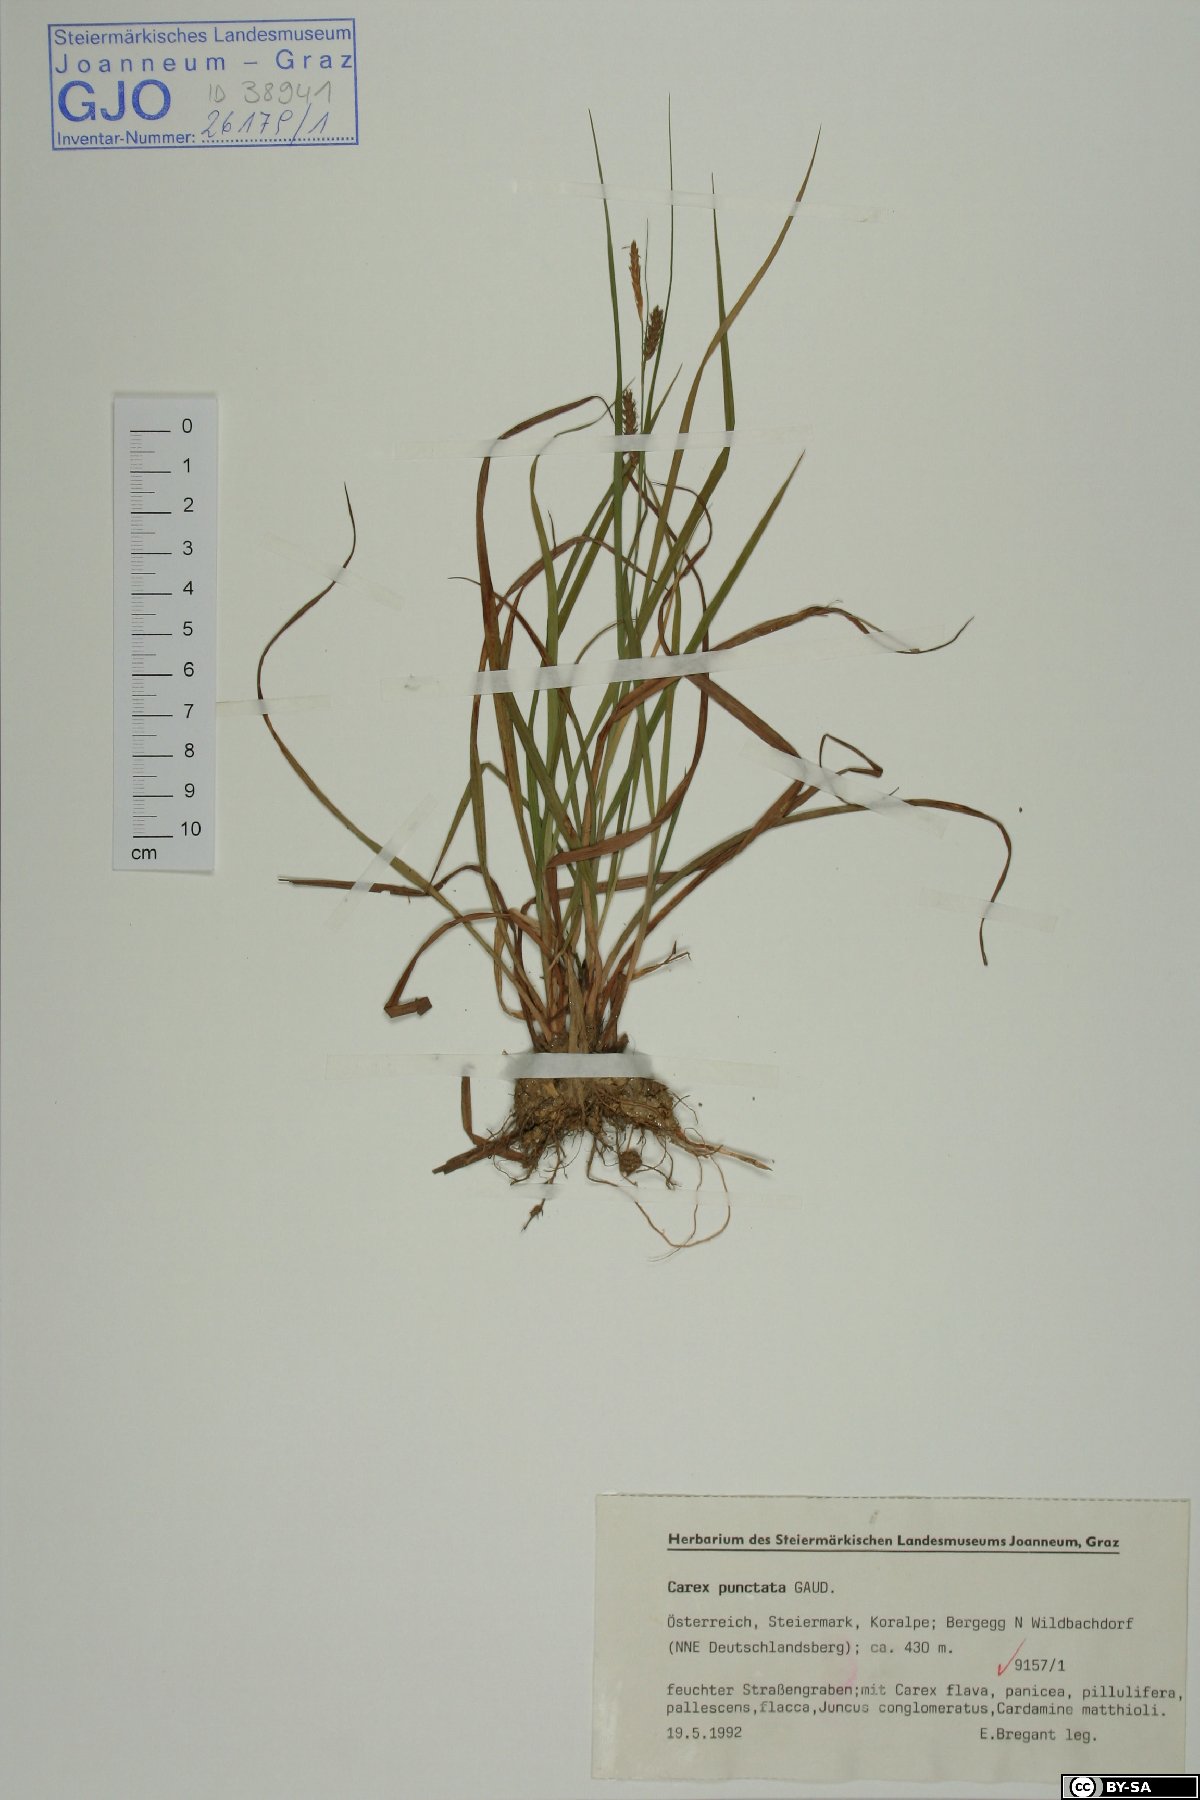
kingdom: Plantae
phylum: Tracheophyta
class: Liliopsida
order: Poales
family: Cyperaceae
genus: Carex
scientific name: Carex punctata
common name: Dotted sedge
